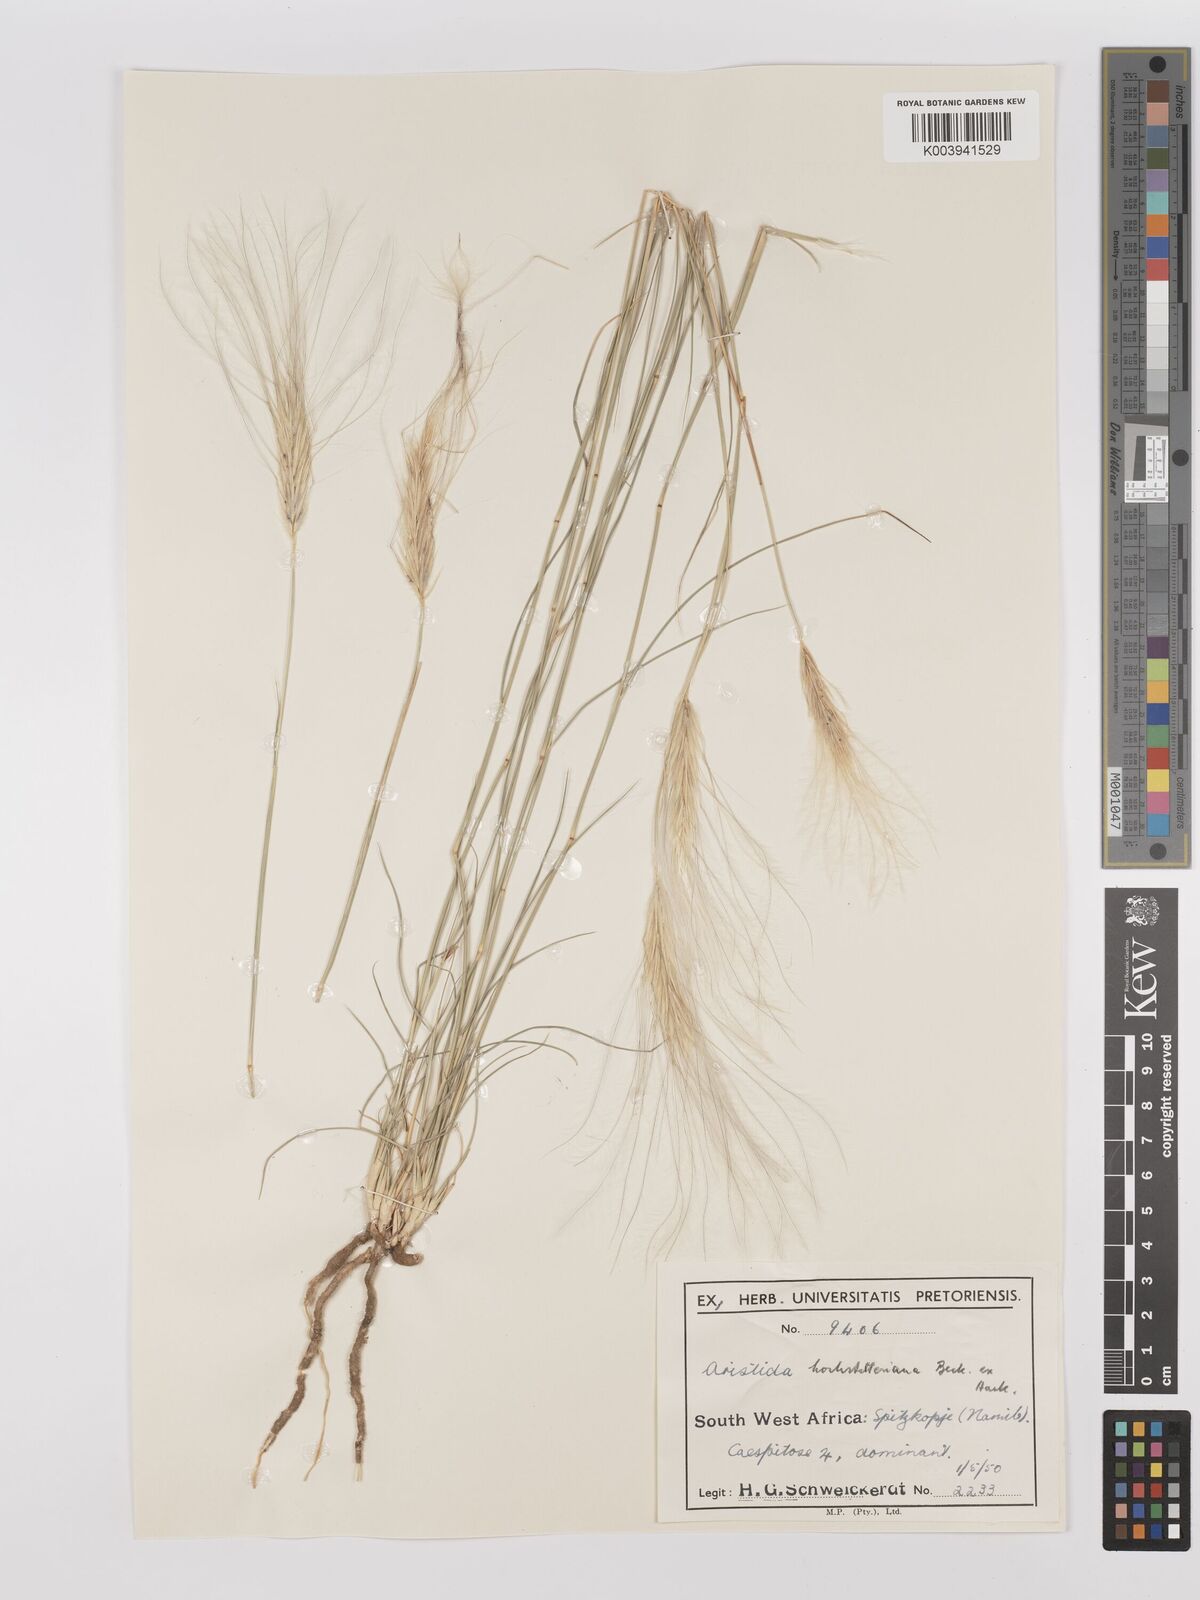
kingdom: Plantae
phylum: Tracheophyta
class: Liliopsida
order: Poales
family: Poaceae
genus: Stipagrostis
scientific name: Stipagrostis hochstetteriana
